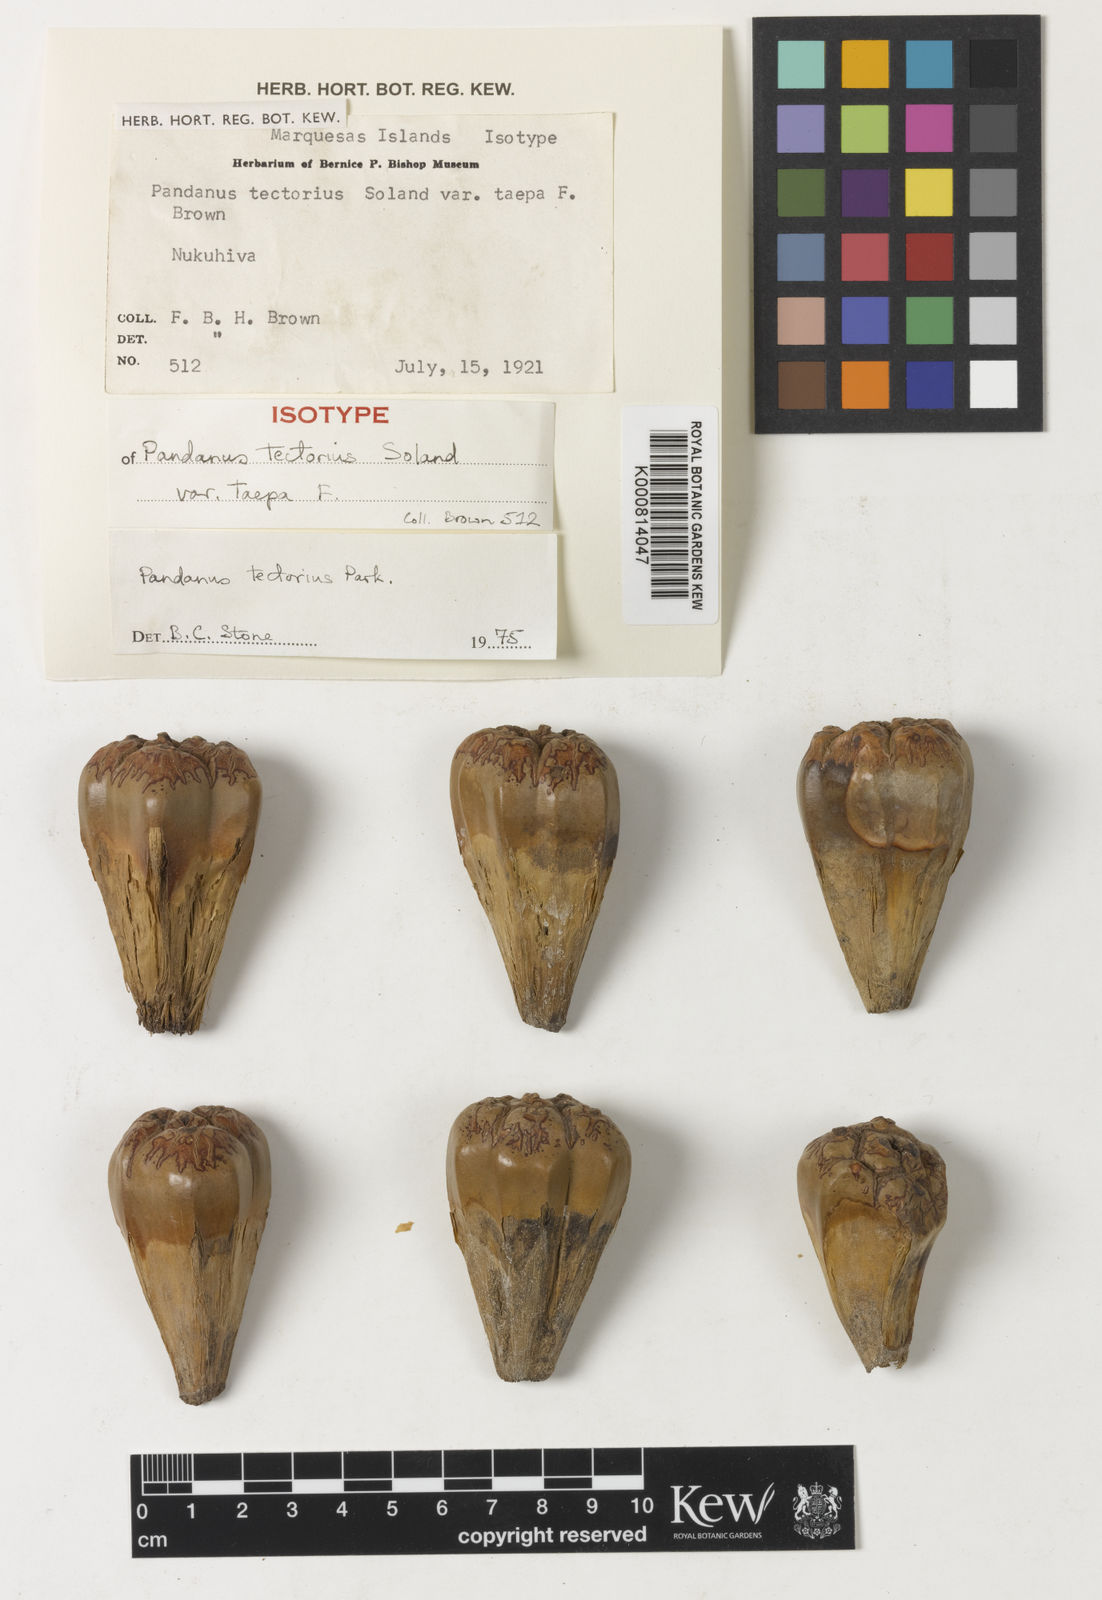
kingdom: Plantae
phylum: Tracheophyta
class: Liliopsida
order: Pandanales
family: Pandanaceae
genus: Pandanus
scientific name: Pandanus
